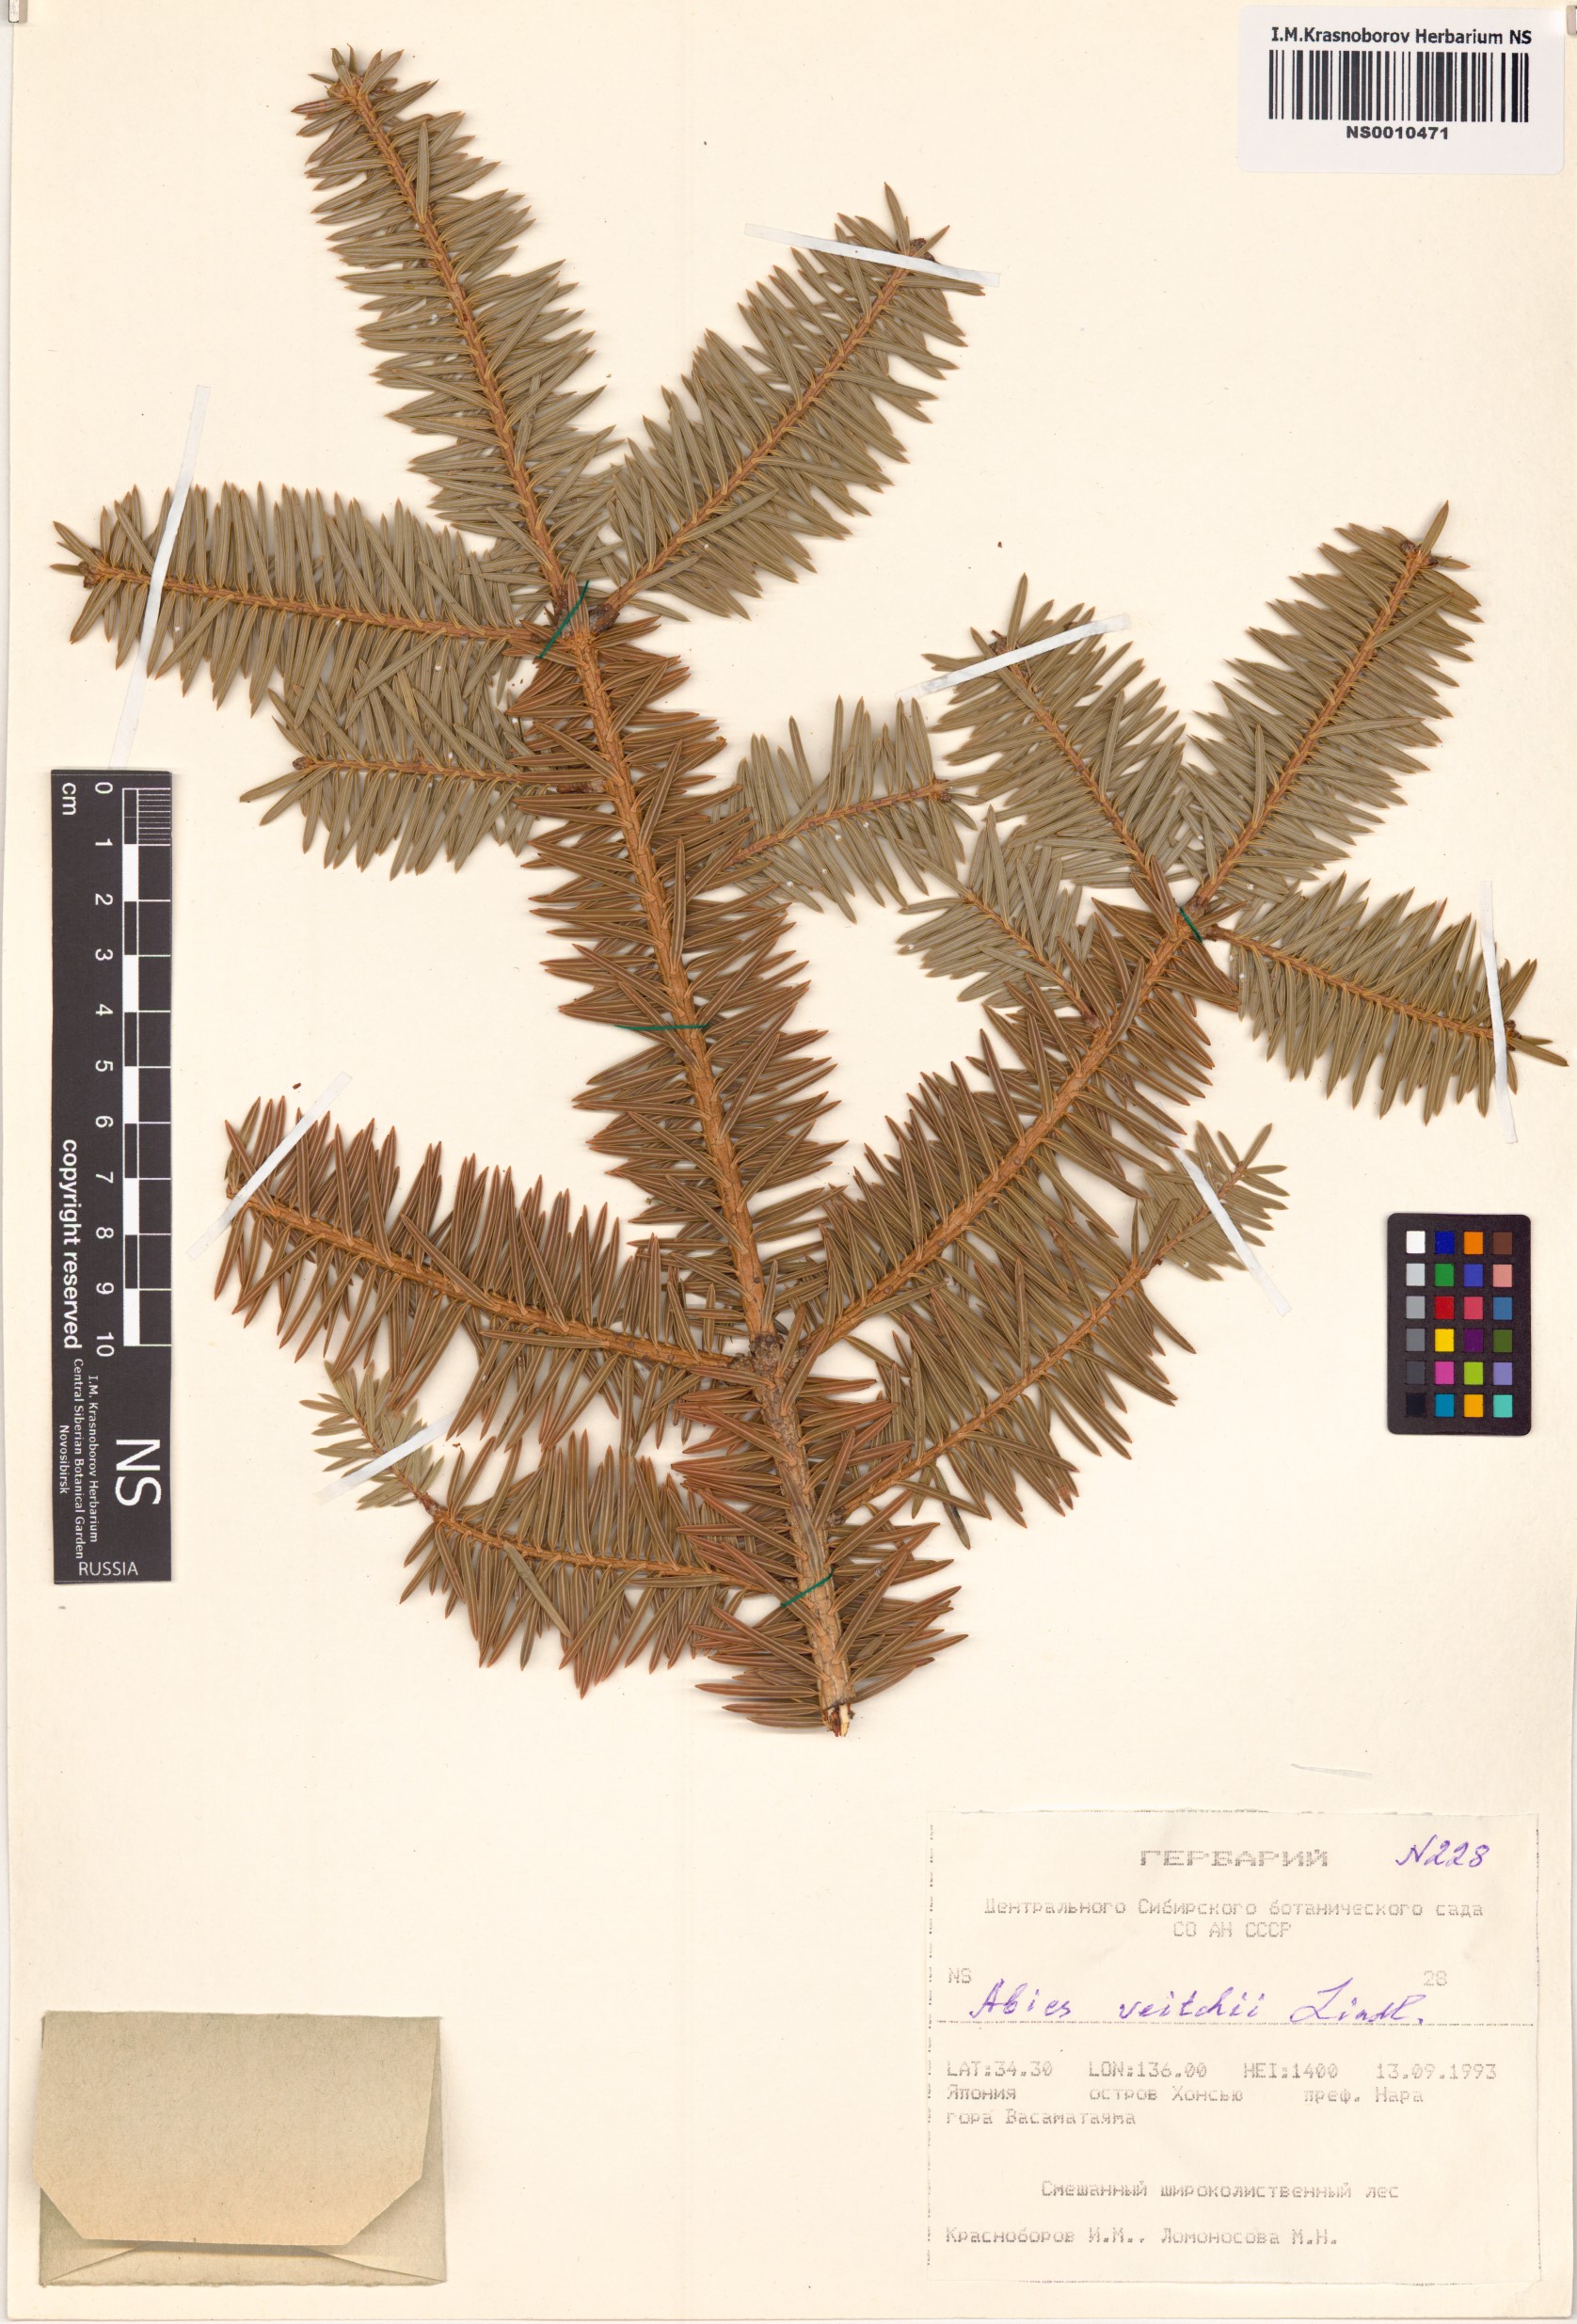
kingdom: Plantae
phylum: Tracheophyta
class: Pinopsida
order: Pinales
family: Pinaceae
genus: Abies
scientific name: Abies veitchii
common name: Veitch’s fir
